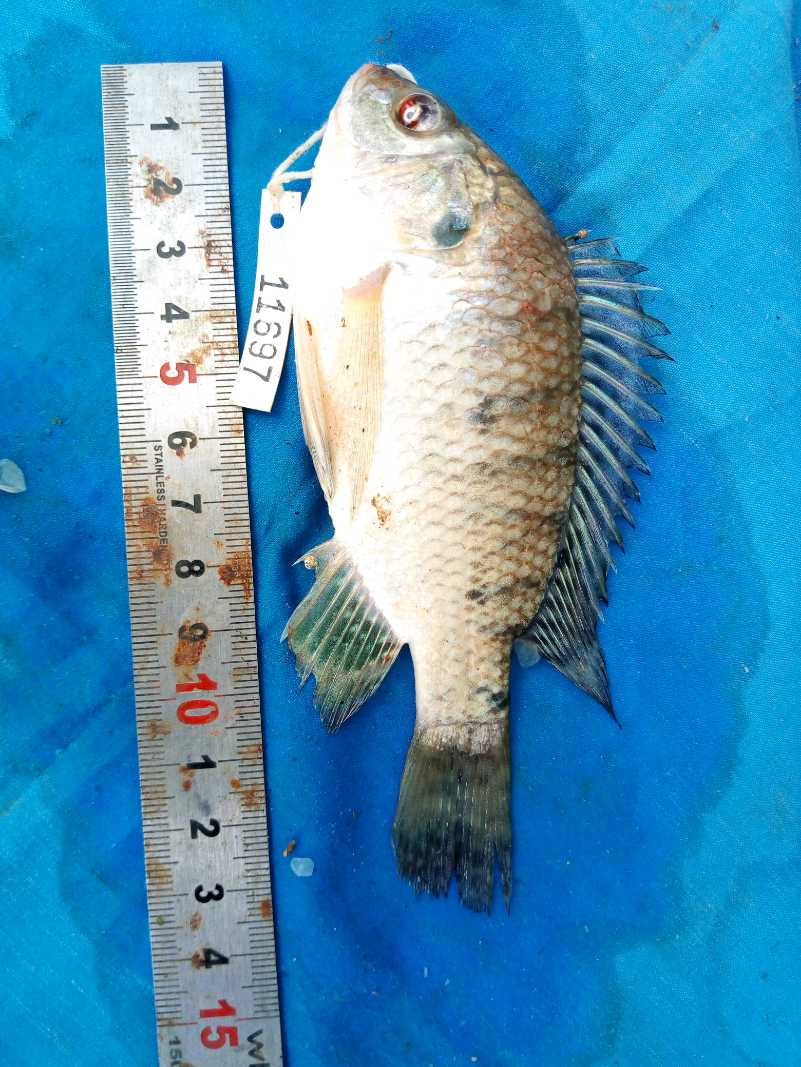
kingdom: Animalia
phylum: Chordata
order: Perciformes
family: Cichlidae
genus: Oreochromis
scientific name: Oreochromis spilurus
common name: Sabaki tilapia
